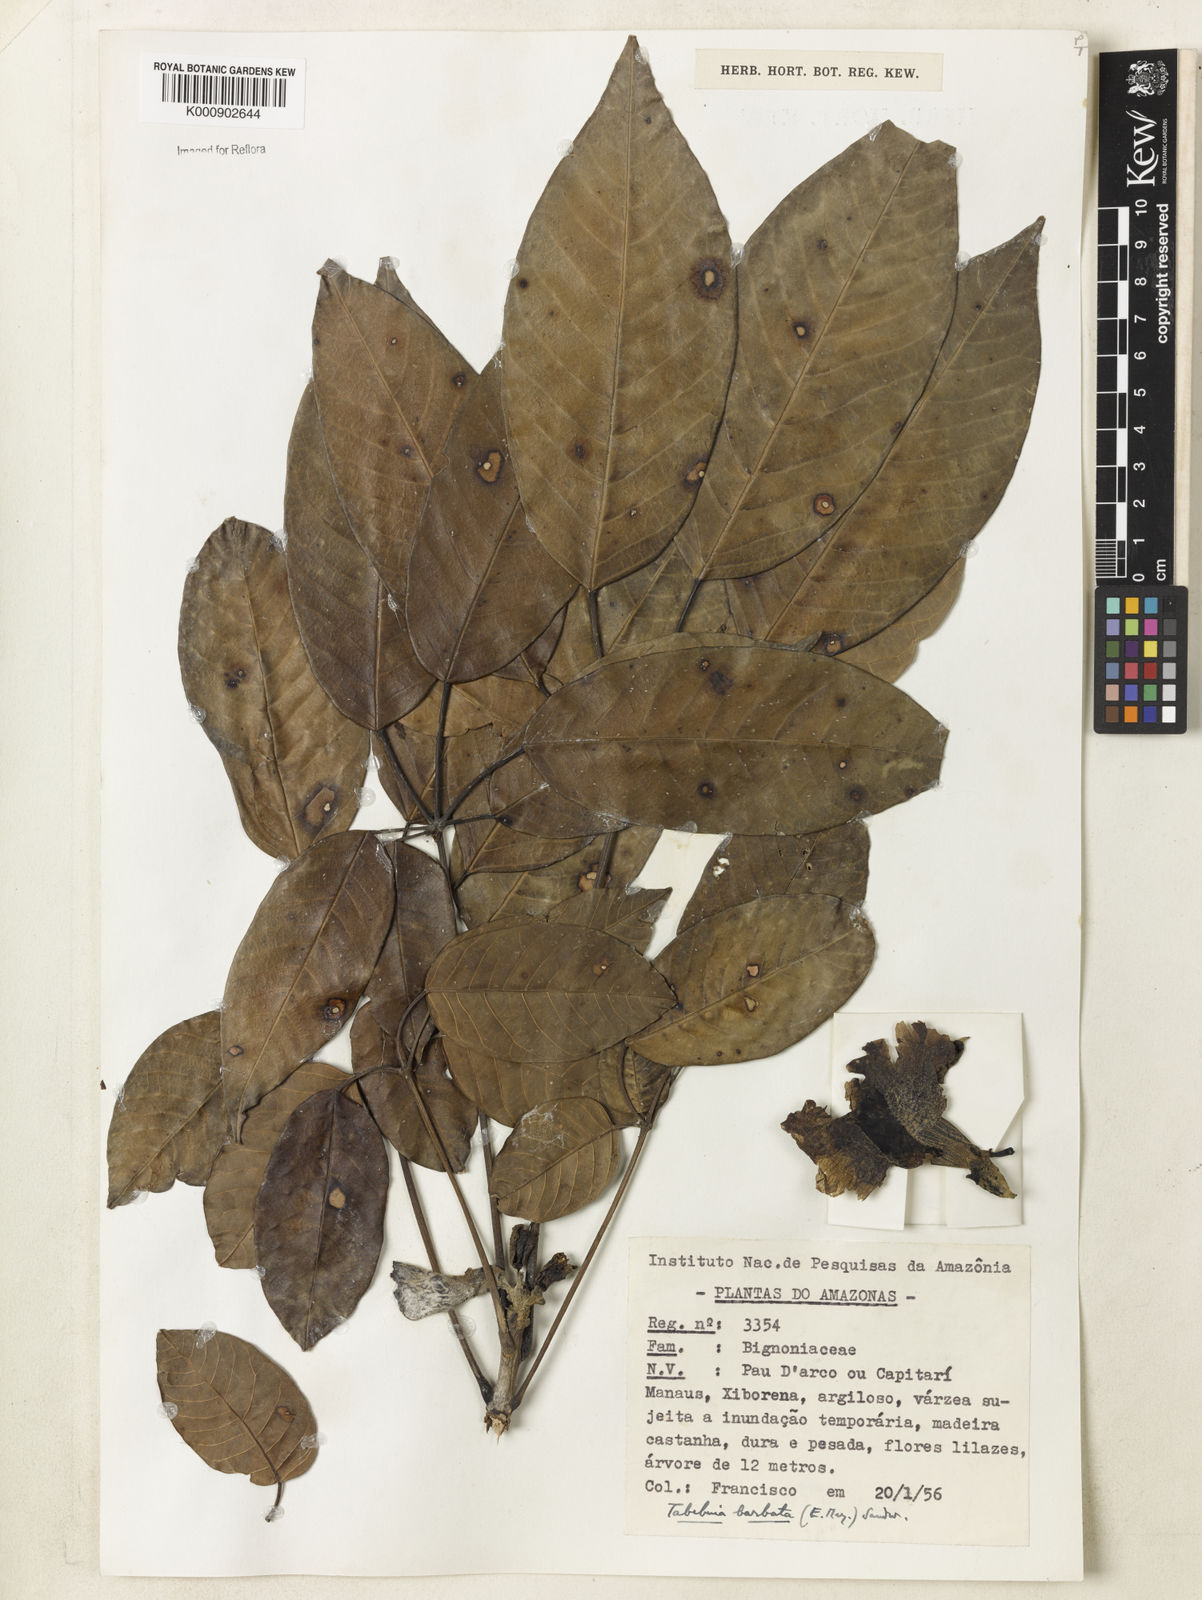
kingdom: Plantae
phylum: Tracheophyta
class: Magnoliopsida
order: Lamiales
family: Bignoniaceae
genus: Handroanthus
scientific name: Handroanthus barbatus
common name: Trumpet trees
